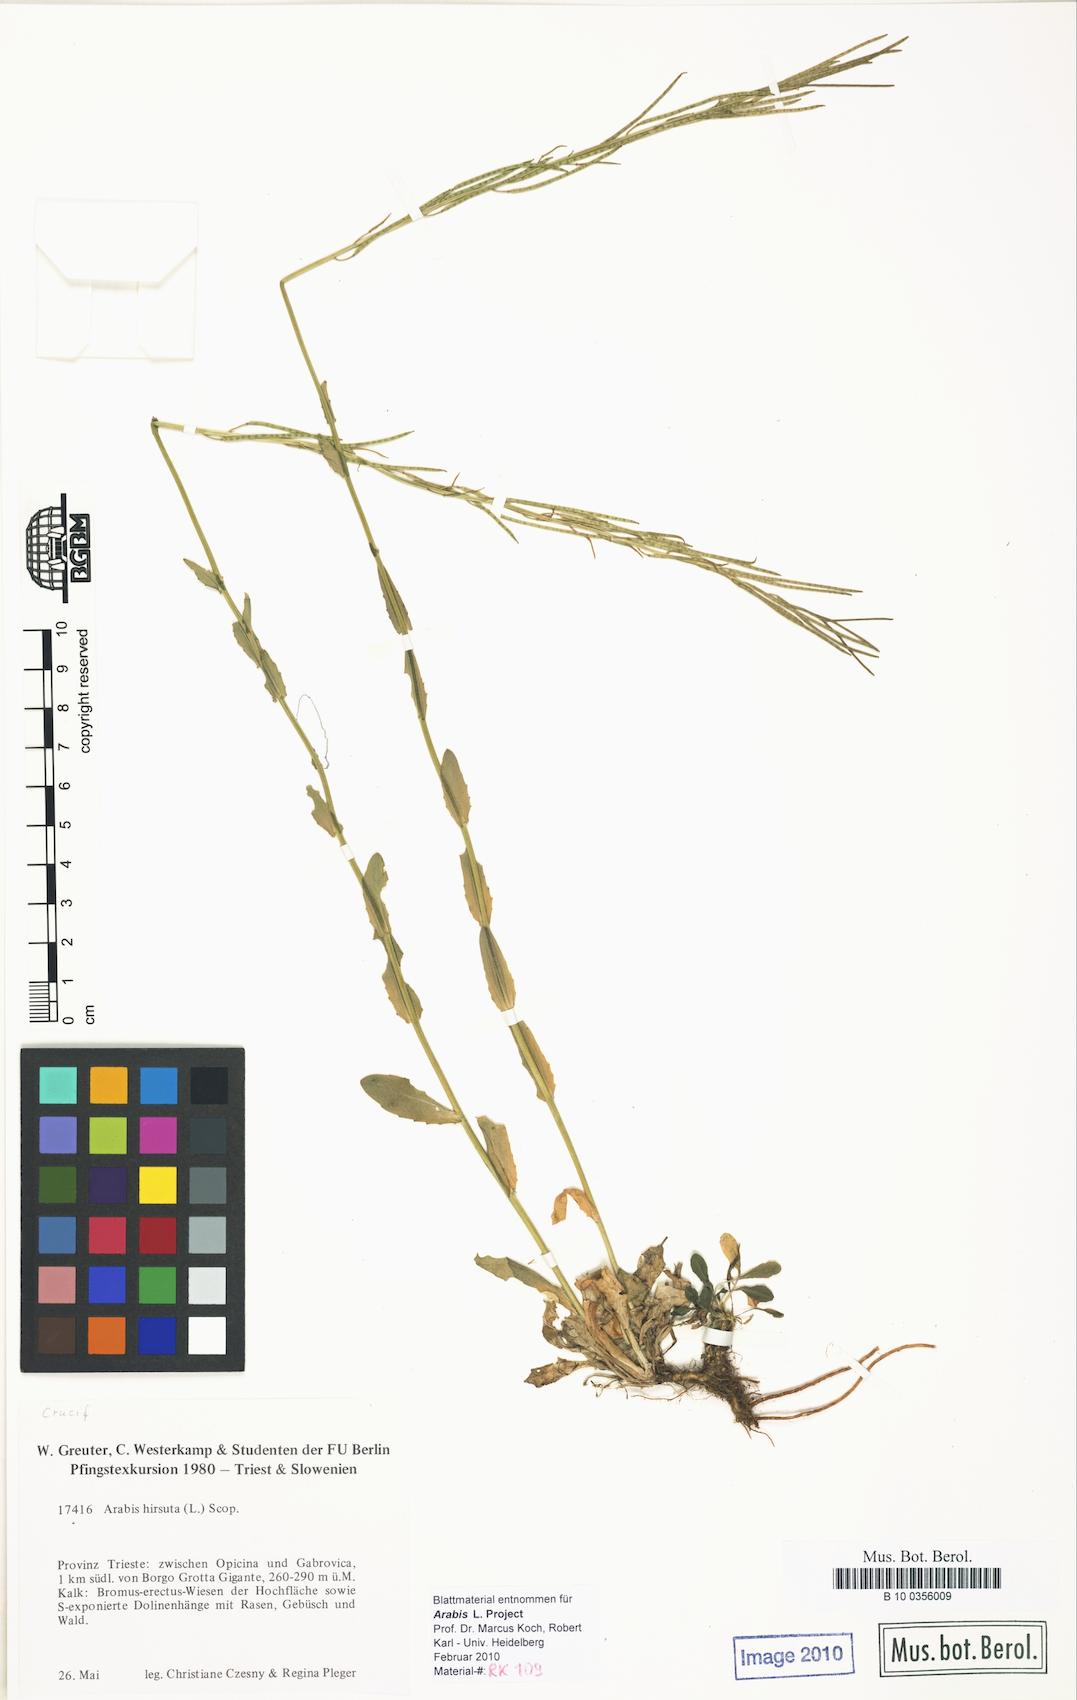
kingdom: Plantae
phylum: Tracheophyta
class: Magnoliopsida
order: Brassicales
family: Brassicaceae
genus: Arabis
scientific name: Arabis hirsuta
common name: Hairy rock-cress
